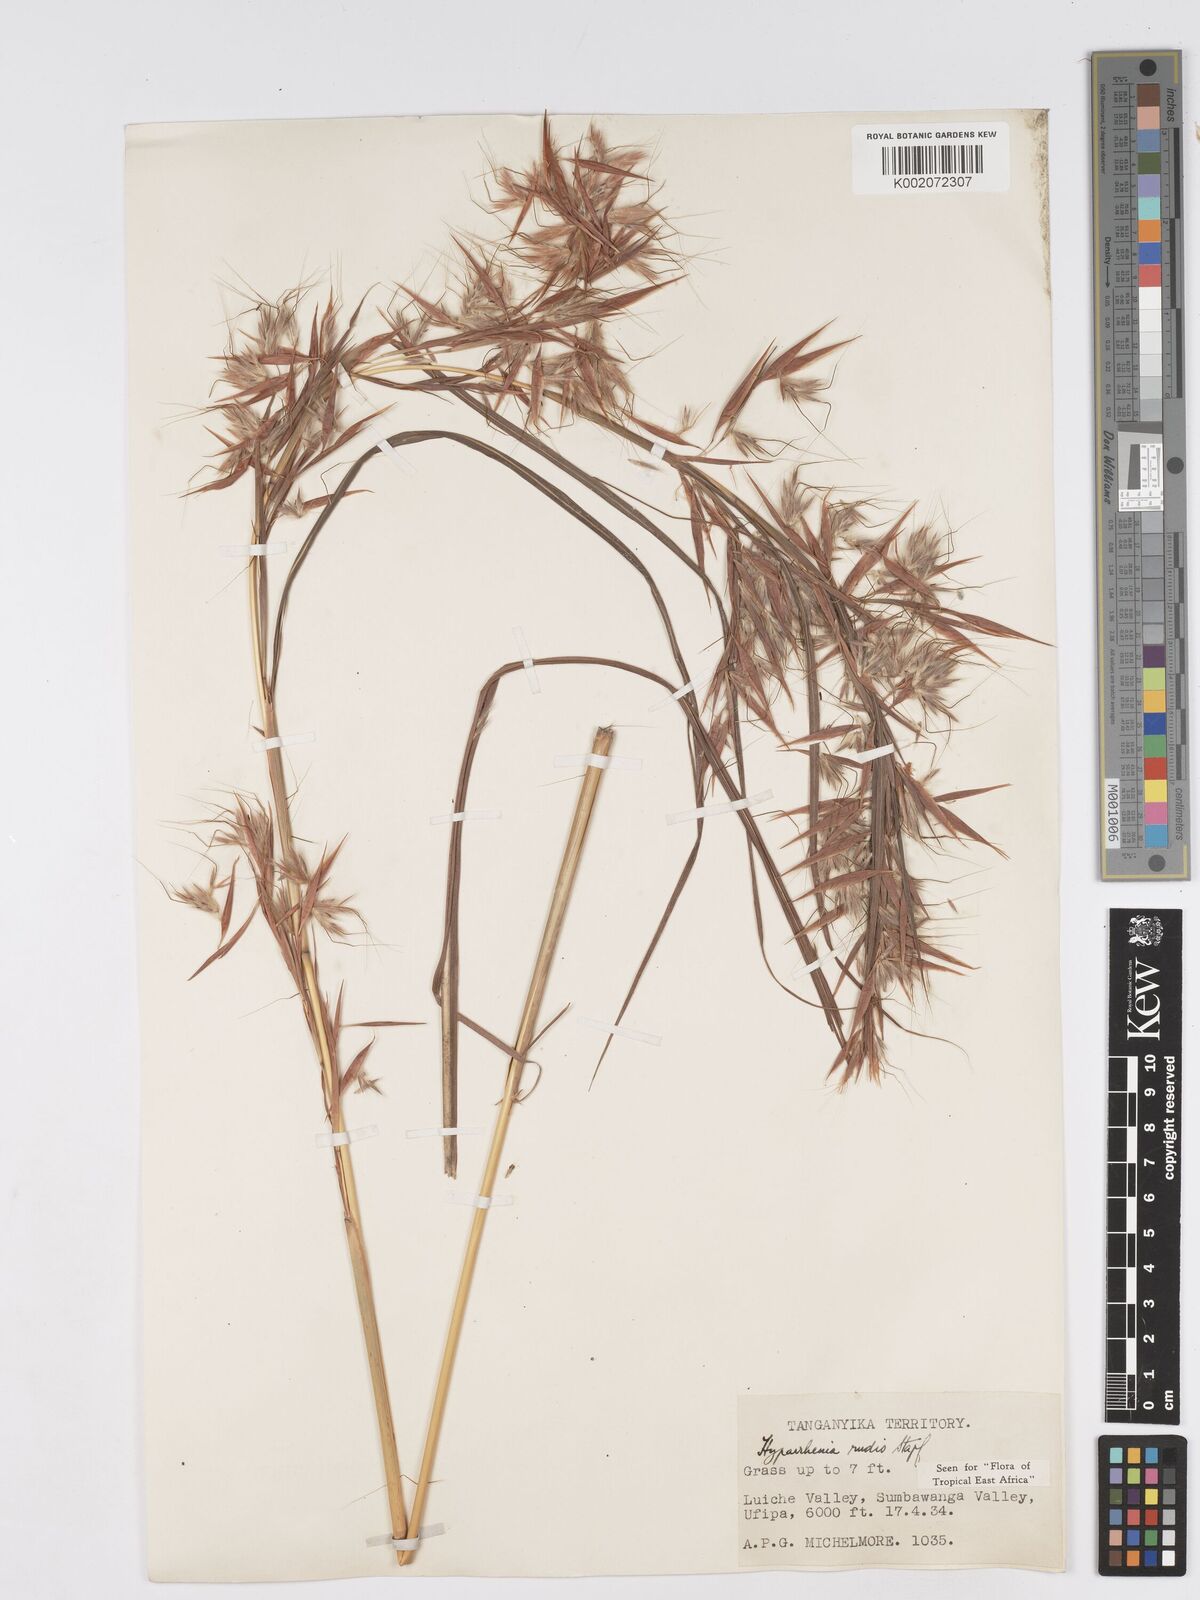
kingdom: Plantae
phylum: Tracheophyta
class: Liliopsida
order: Poales
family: Poaceae
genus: Hyparrhenia
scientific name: Hyparrhenia rudis
